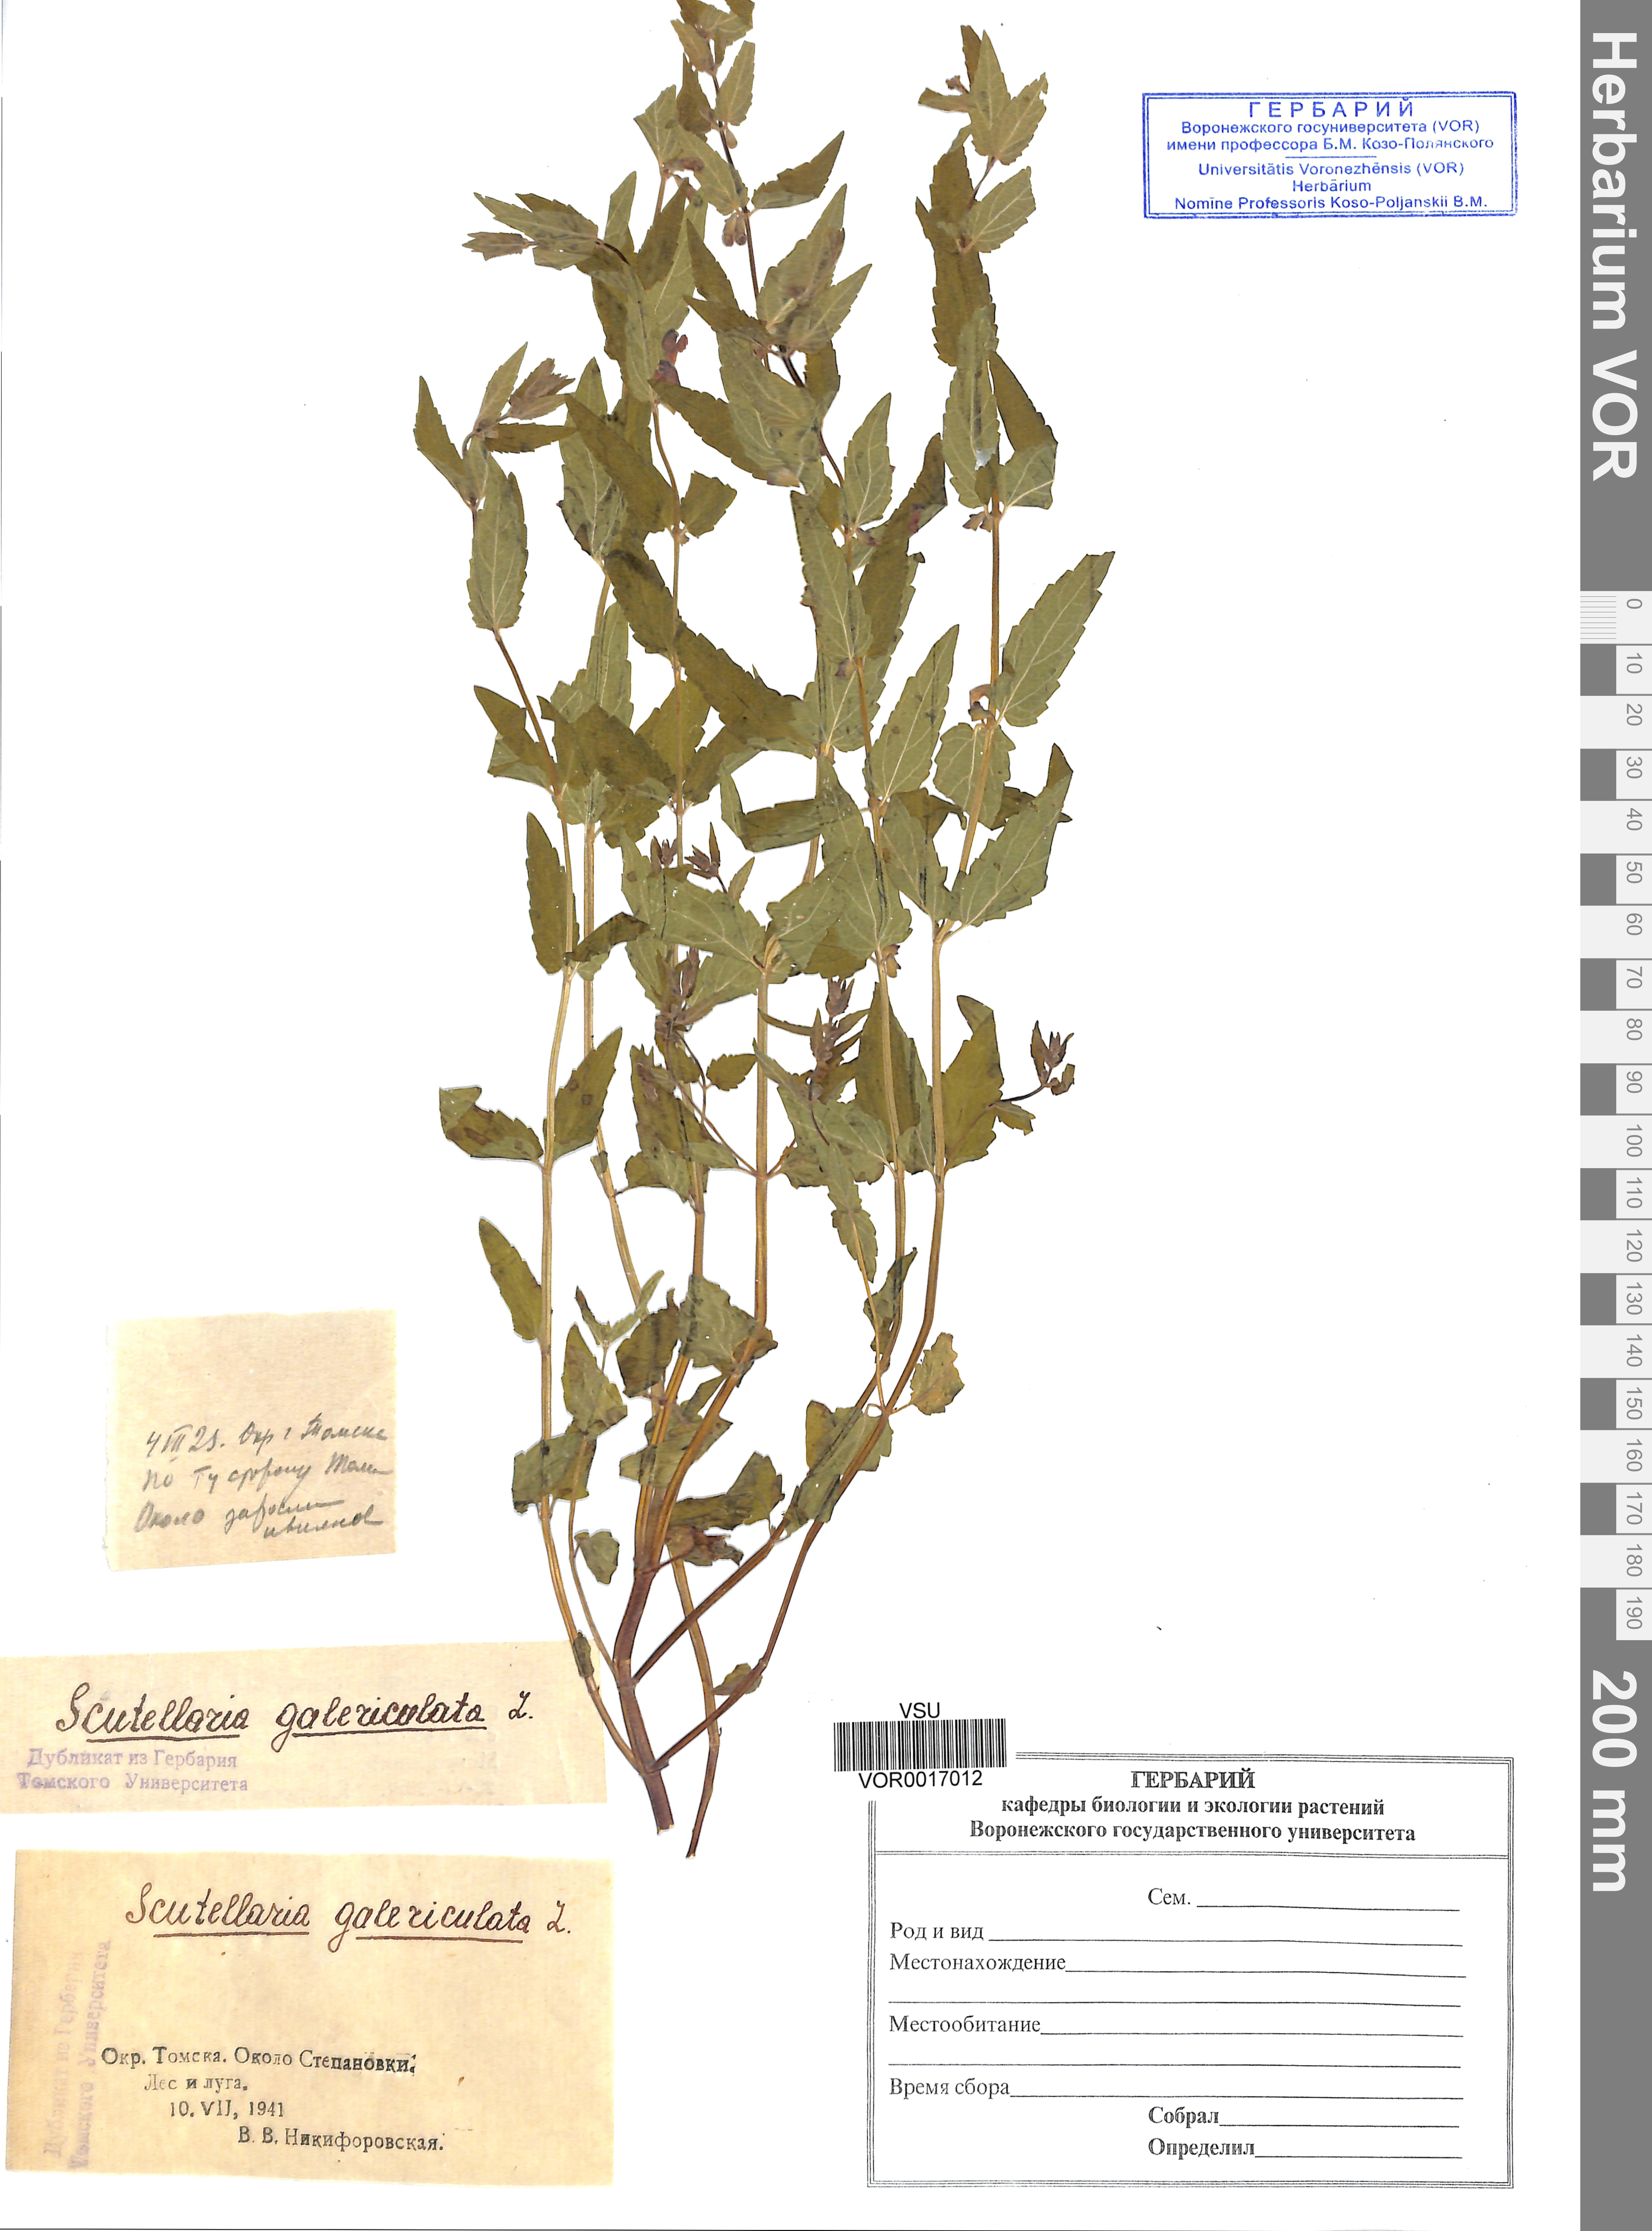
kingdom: Plantae
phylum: Tracheophyta
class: Magnoliopsida
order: Lamiales
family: Lamiaceae
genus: Scutellaria
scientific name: Scutellaria galericulata
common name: Skullcap
